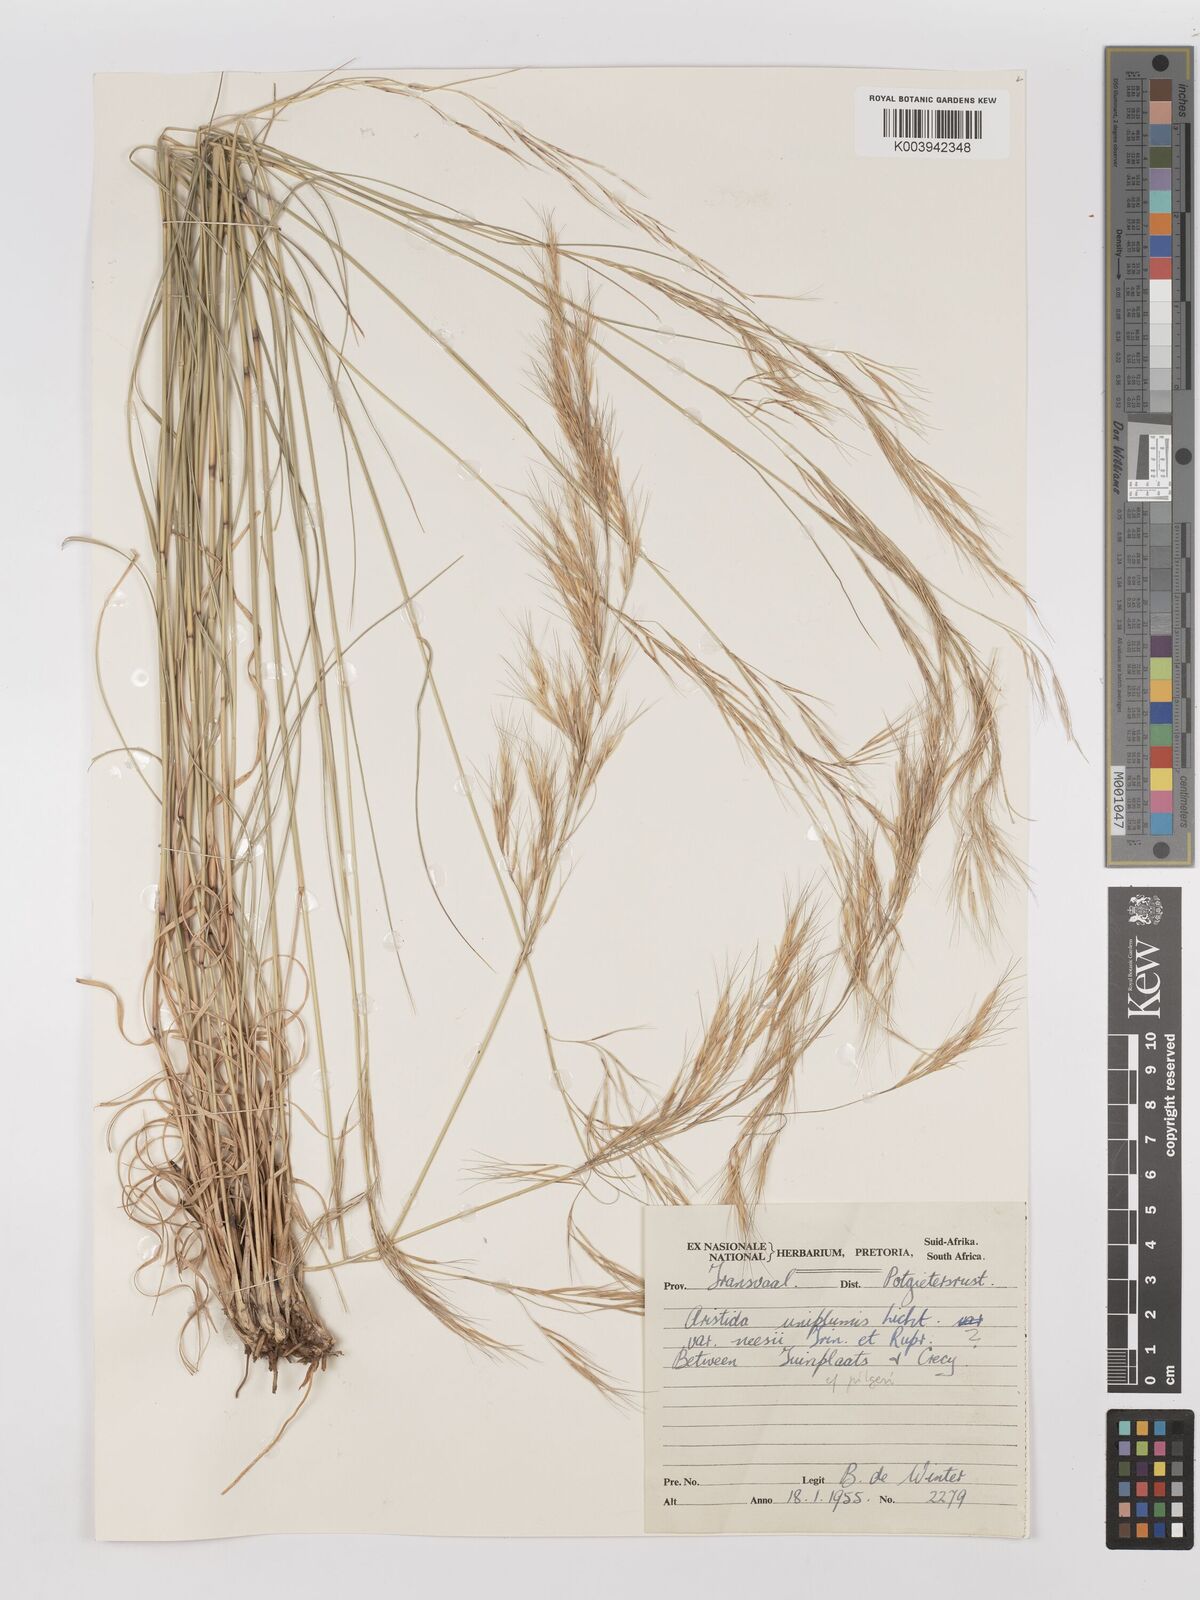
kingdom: Plantae
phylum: Tracheophyta
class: Liliopsida
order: Poales
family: Poaceae
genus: Stipagrostis
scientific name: Stipagrostis uniplumis
